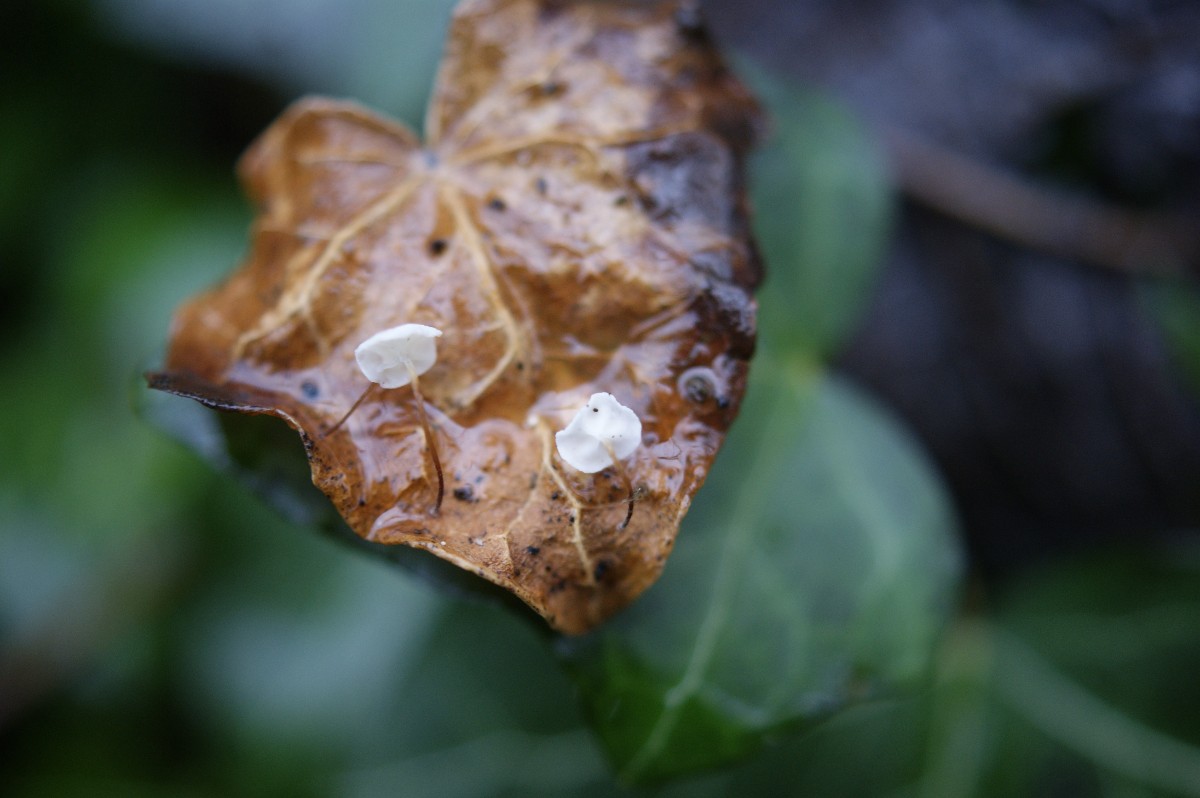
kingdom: Fungi
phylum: Basidiomycota
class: Agaricomycetes
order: Agaricales
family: Marasmiaceae
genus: Marasmius
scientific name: Marasmius epiphylloides
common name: vedbend-bruskhat
